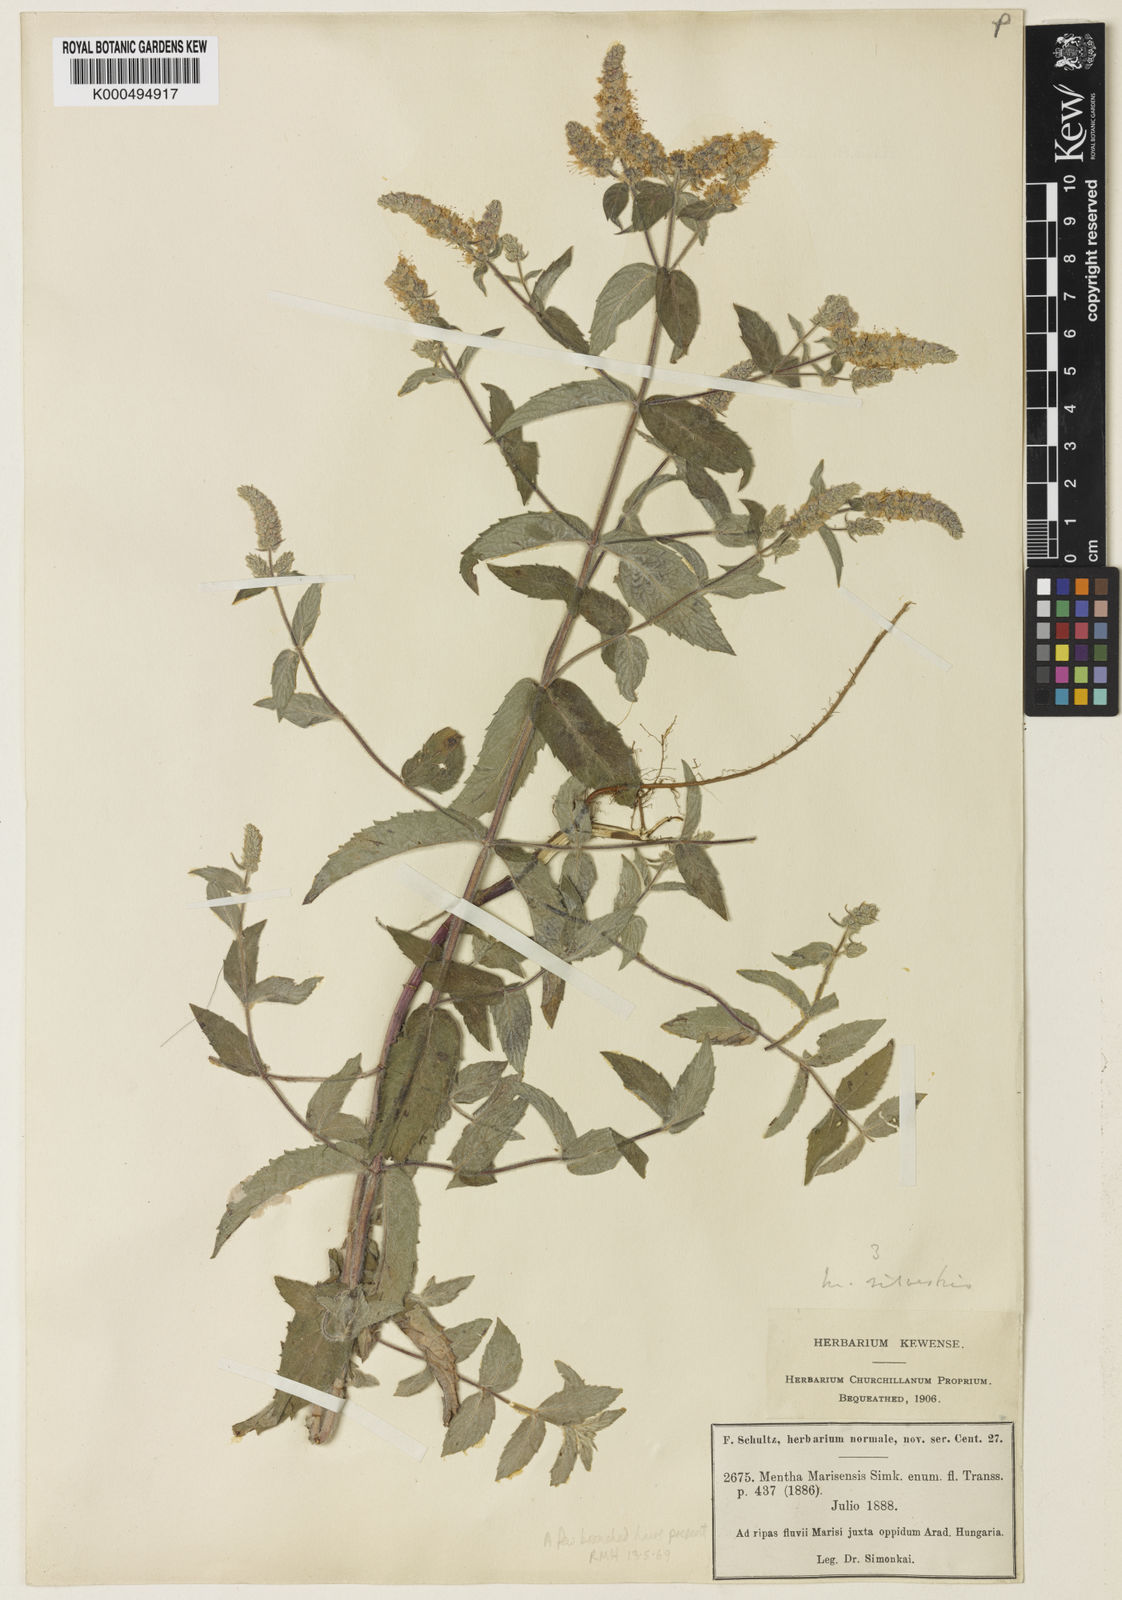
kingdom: Plantae
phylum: Tracheophyta
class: Magnoliopsida
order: Lamiales
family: Lamiaceae
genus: Mentha
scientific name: Mentha spicata
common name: Spearmint
